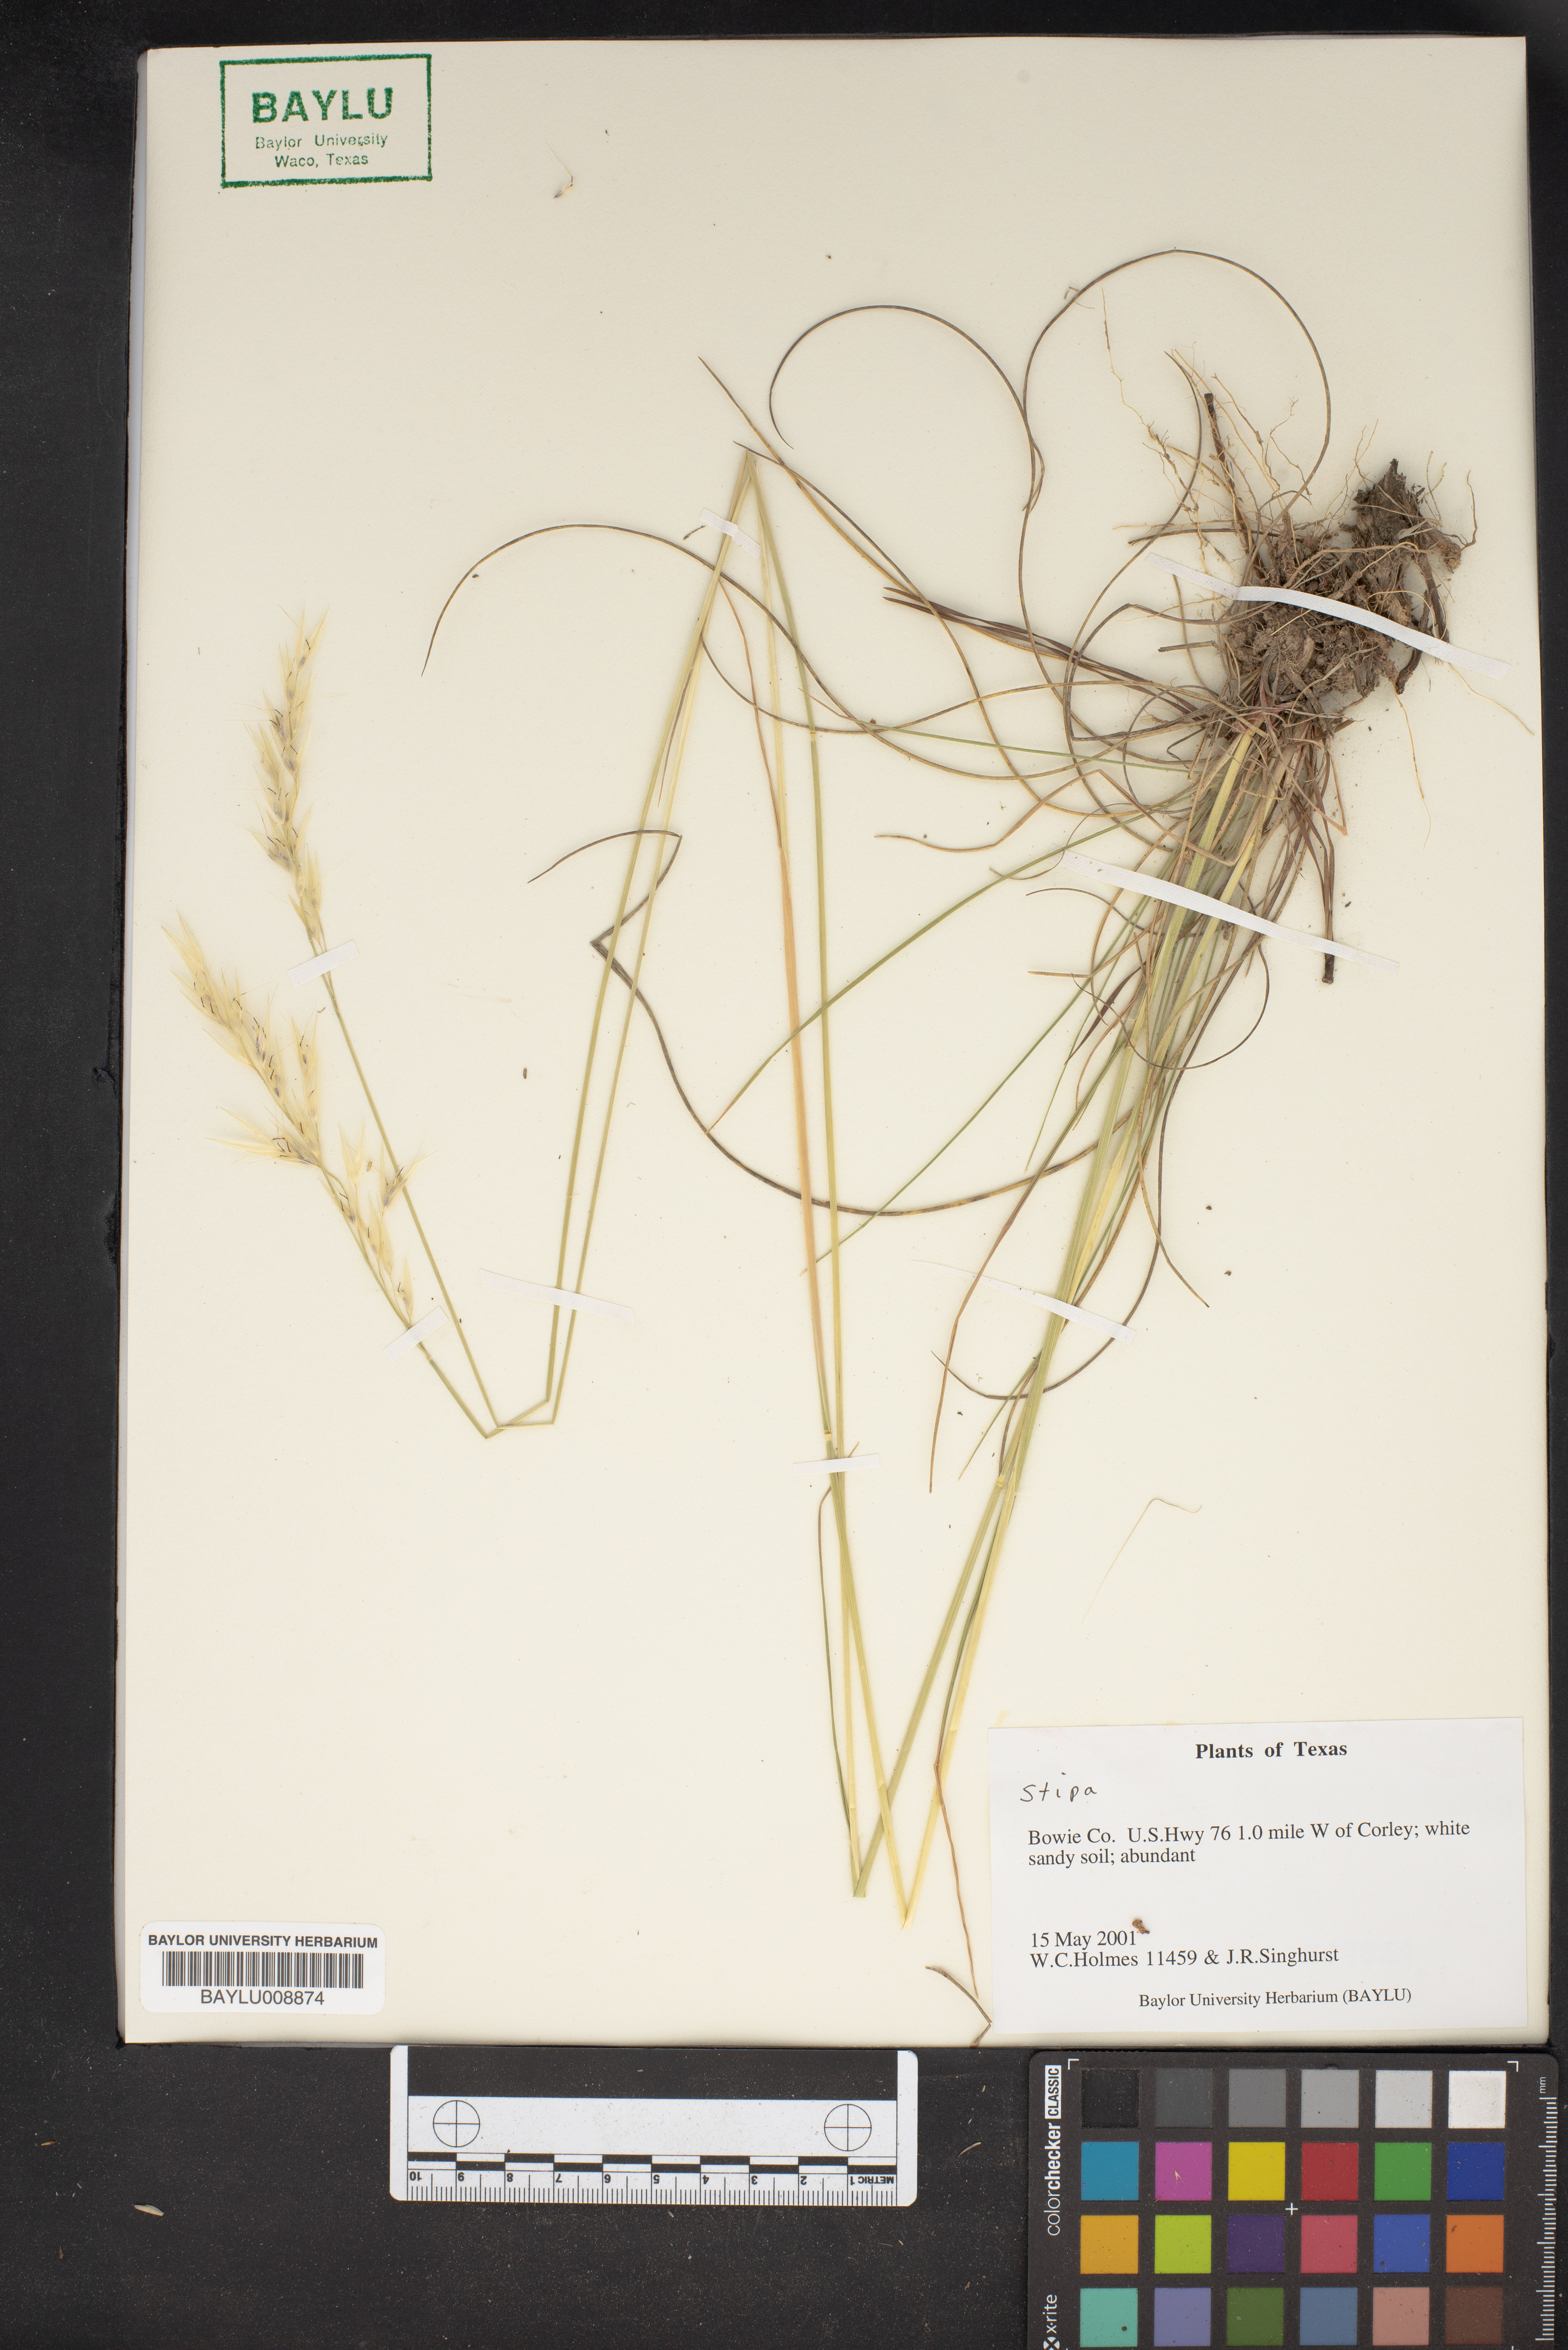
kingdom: Plantae
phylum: Tracheophyta
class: Liliopsida
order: Poales
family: Poaceae
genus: Stipa
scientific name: Stipa
